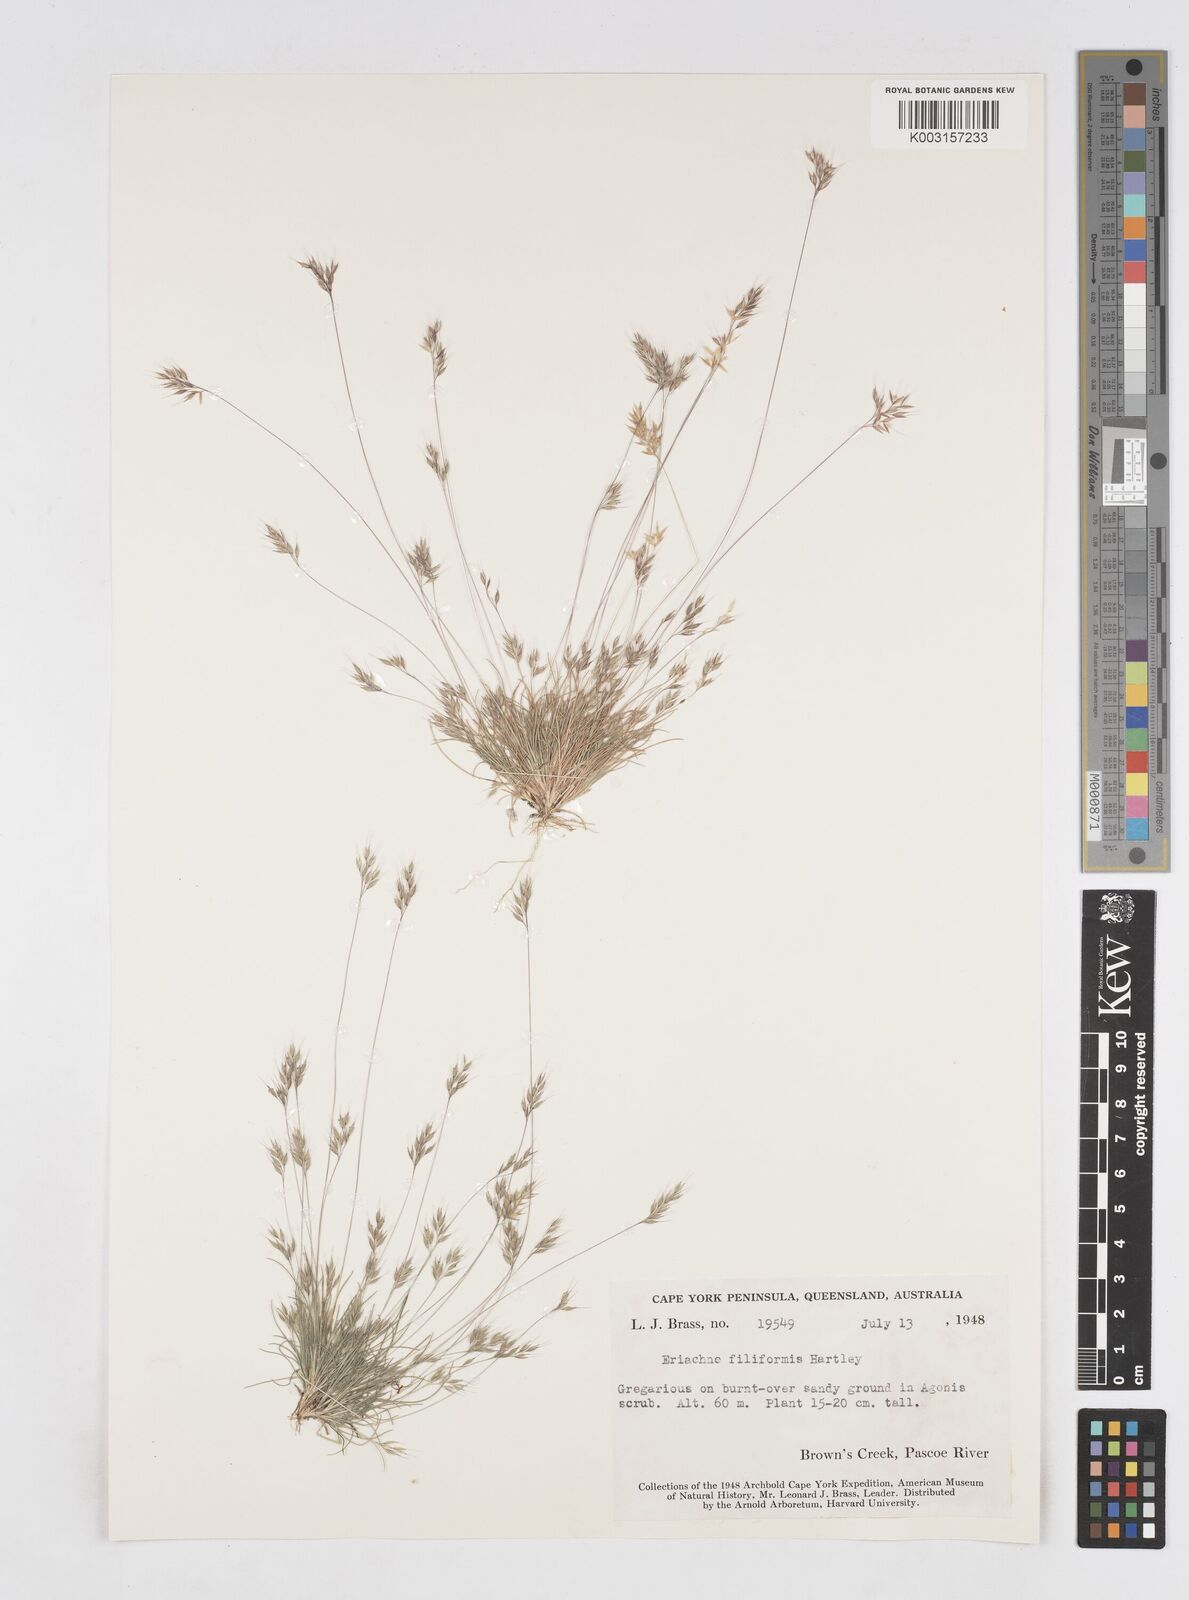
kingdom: Plantae
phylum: Tracheophyta
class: Liliopsida
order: Poales
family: Poaceae
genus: Eriachne
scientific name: Eriachne filiformis
